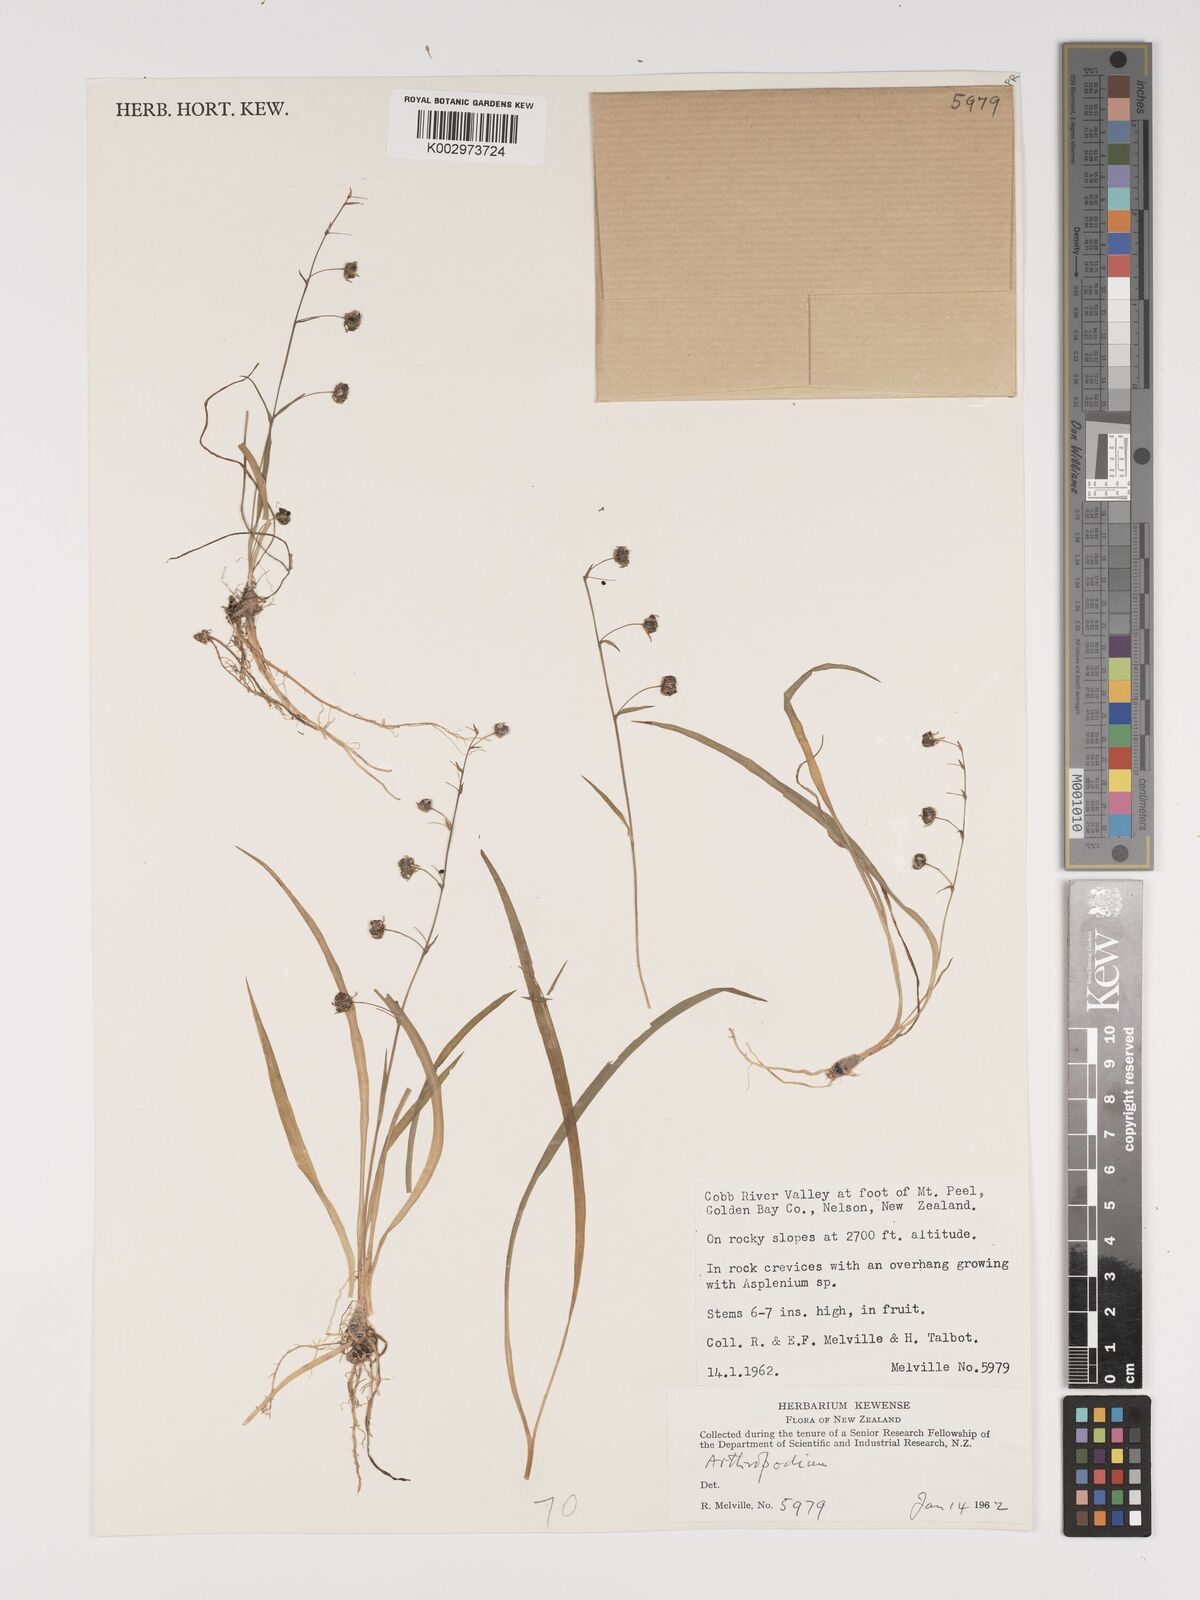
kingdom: Plantae
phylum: Tracheophyta
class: Liliopsida
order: Asparagales
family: Asparagaceae
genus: Arthropodium
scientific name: Arthropodium candidum
